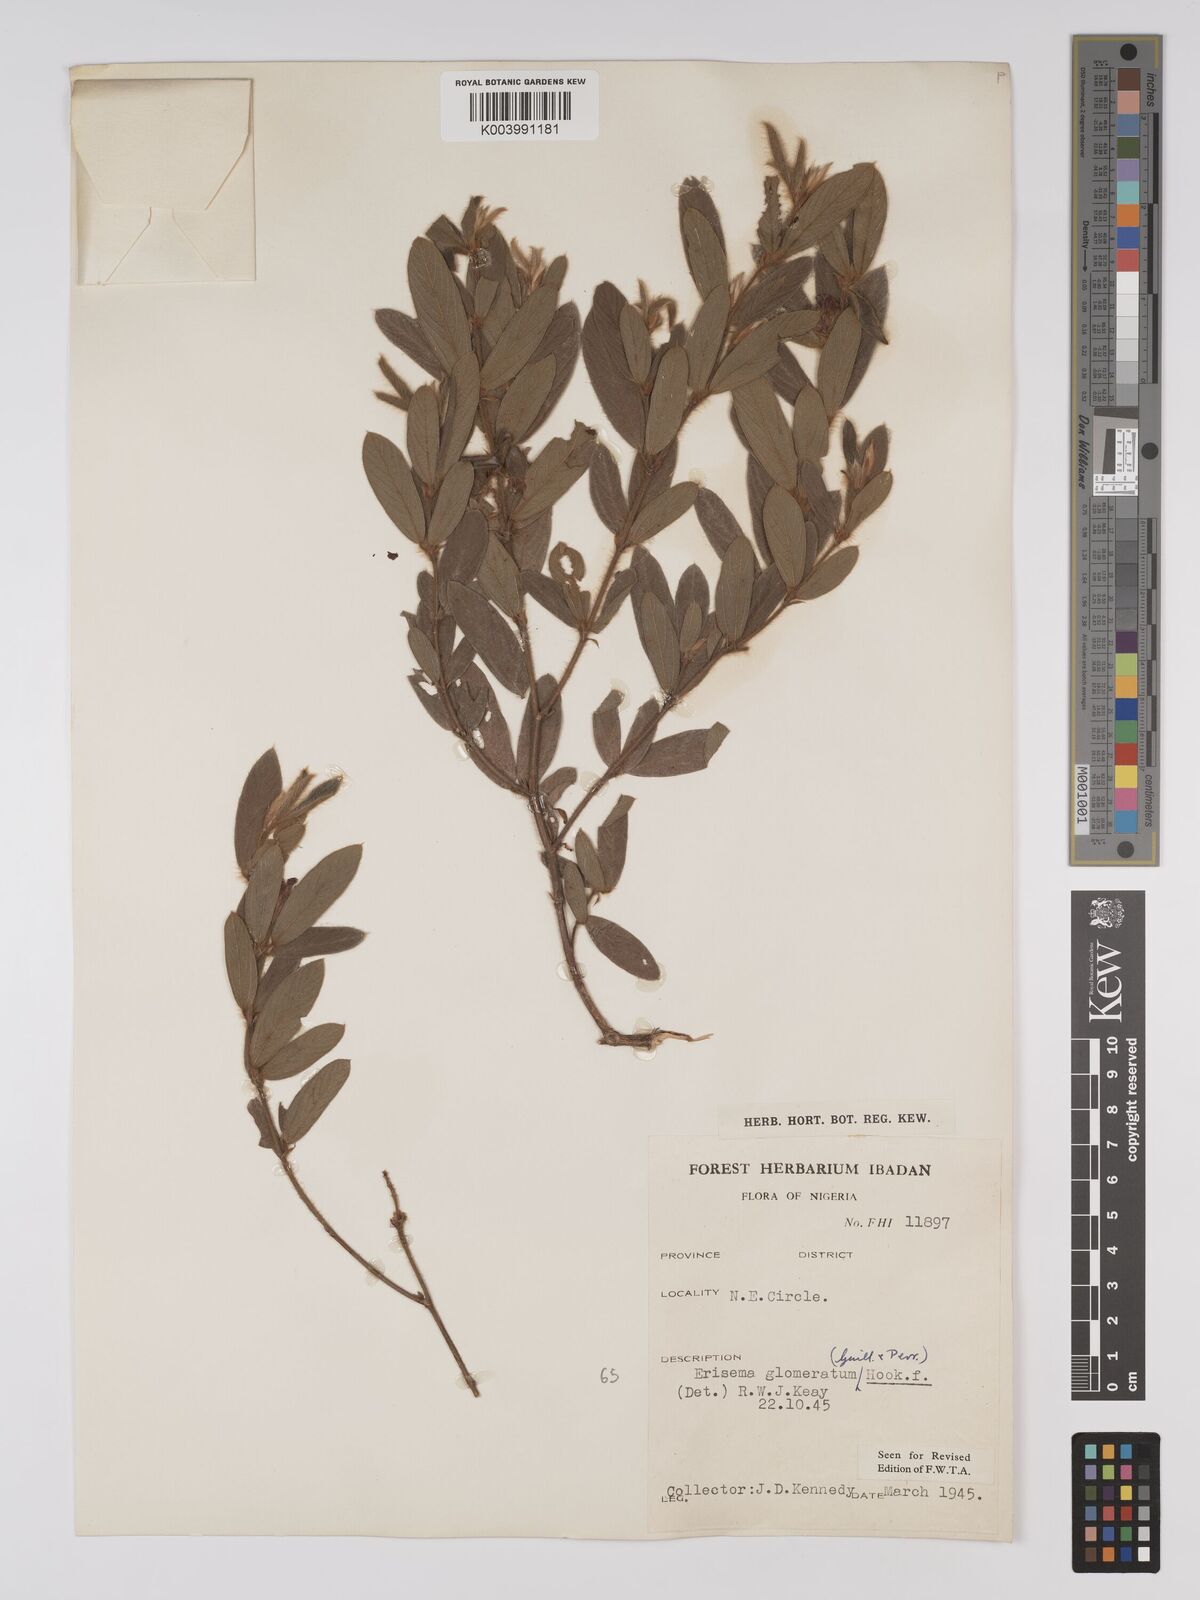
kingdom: Plantae
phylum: Tracheophyta
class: Magnoliopsida
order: Fabales
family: Fabaceae
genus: Eriosema
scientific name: Eriosema glomeratum
